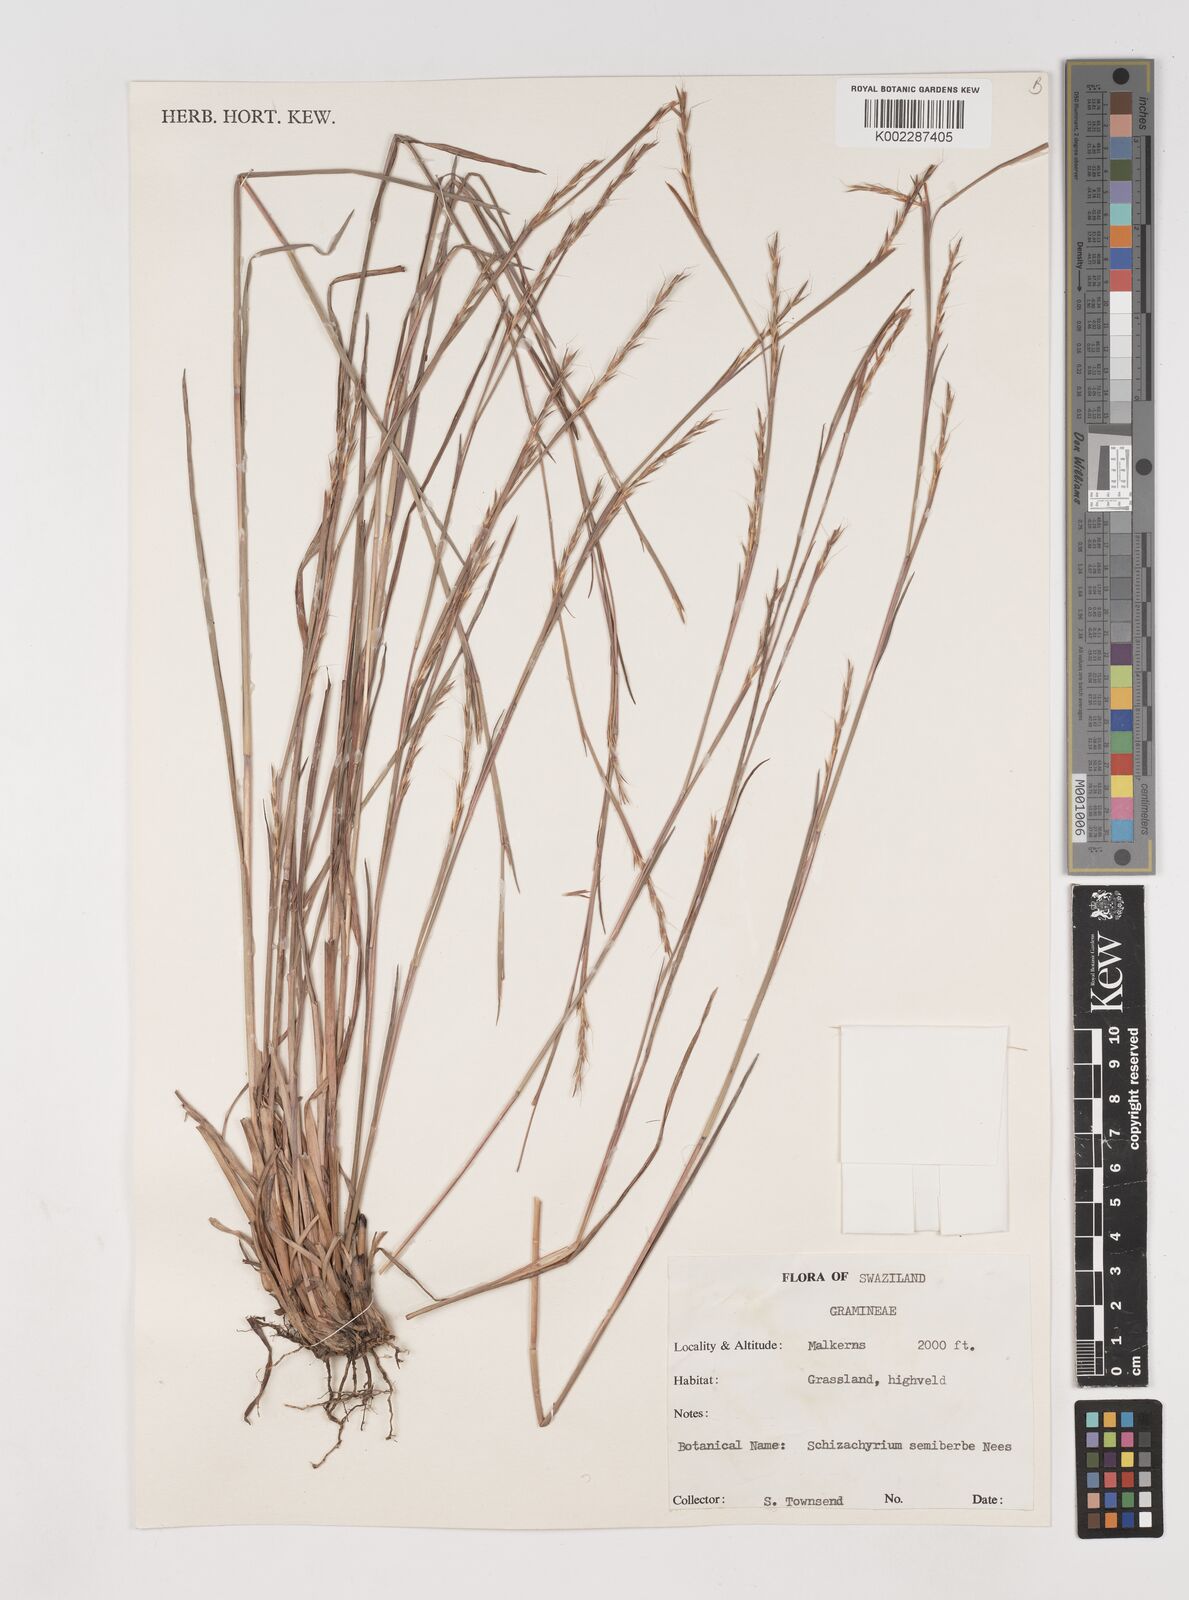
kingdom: Plantae
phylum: Tracheophyta
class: Liliopsida
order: Poales
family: Poaceae
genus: Schizachyrium
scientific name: Schizachyrium sanguineum
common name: Crimson bluestem
